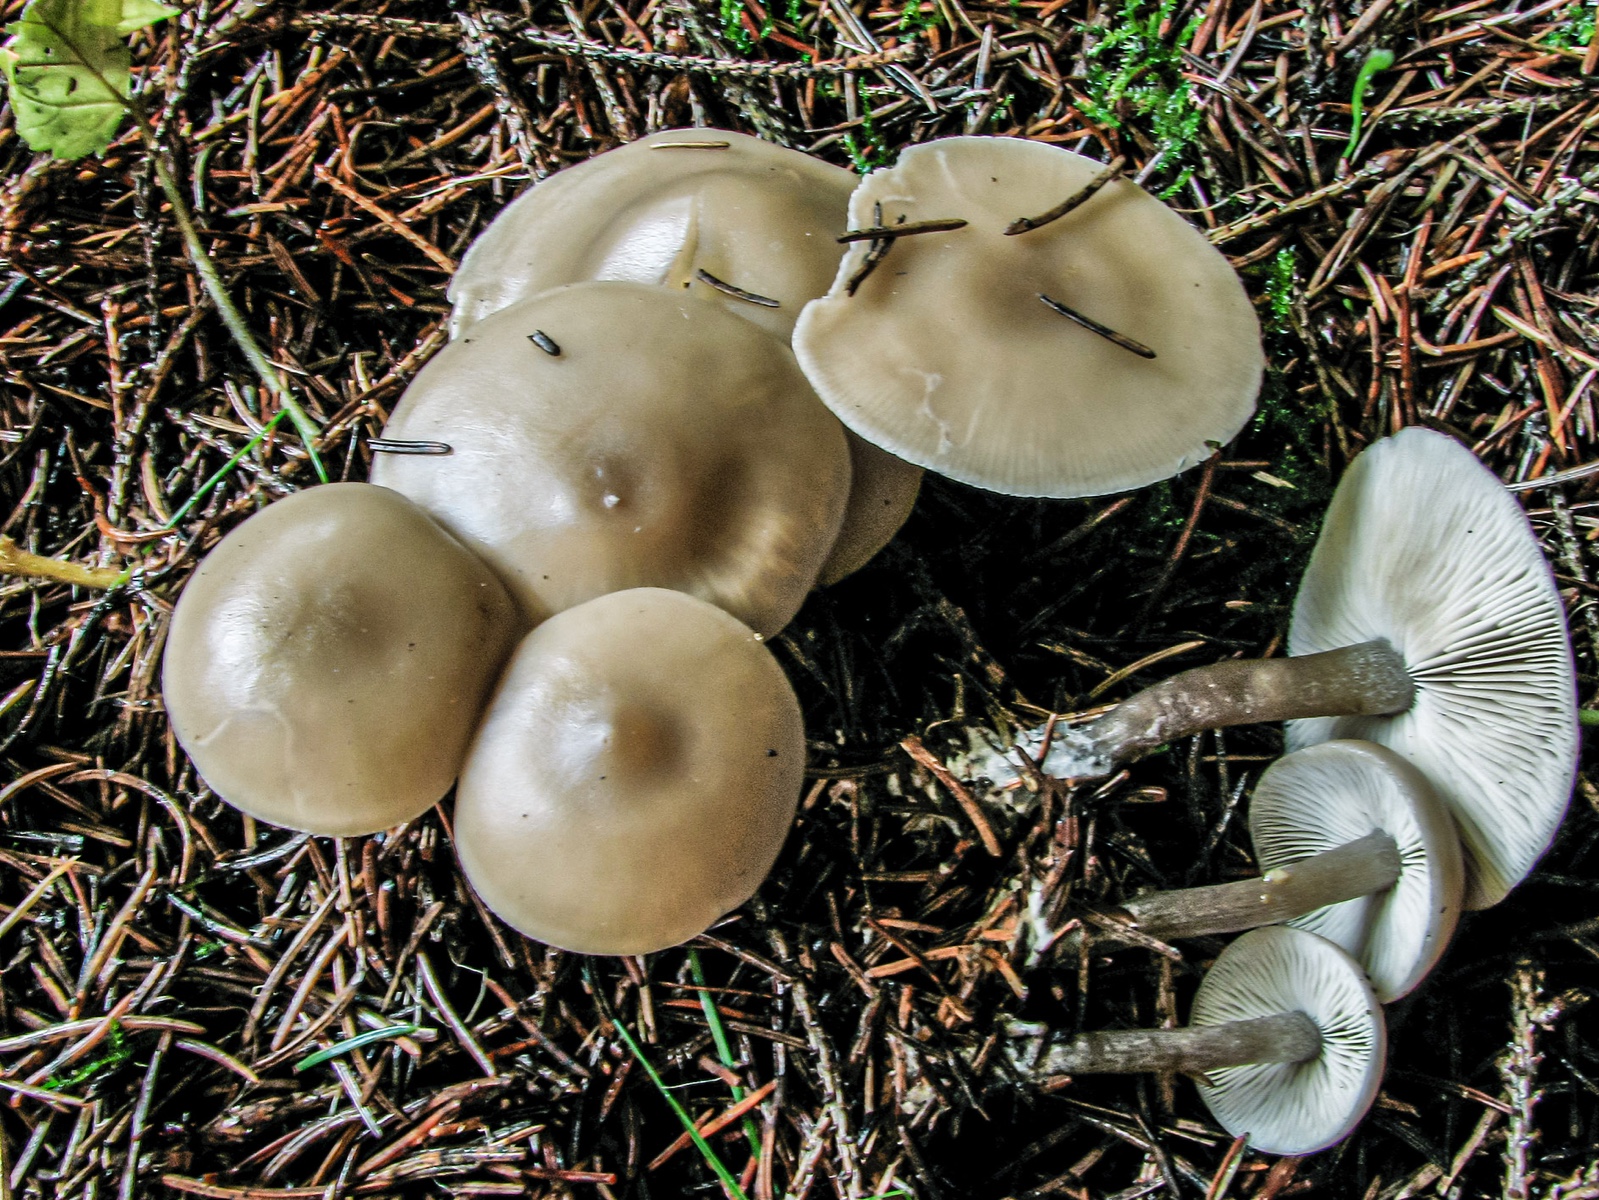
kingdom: Fungi
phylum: Basidiomycota
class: Agaricomycetes
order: Agaricales
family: Lyophyllaceae
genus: Tephrocybe
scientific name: Tephrocybe putida
